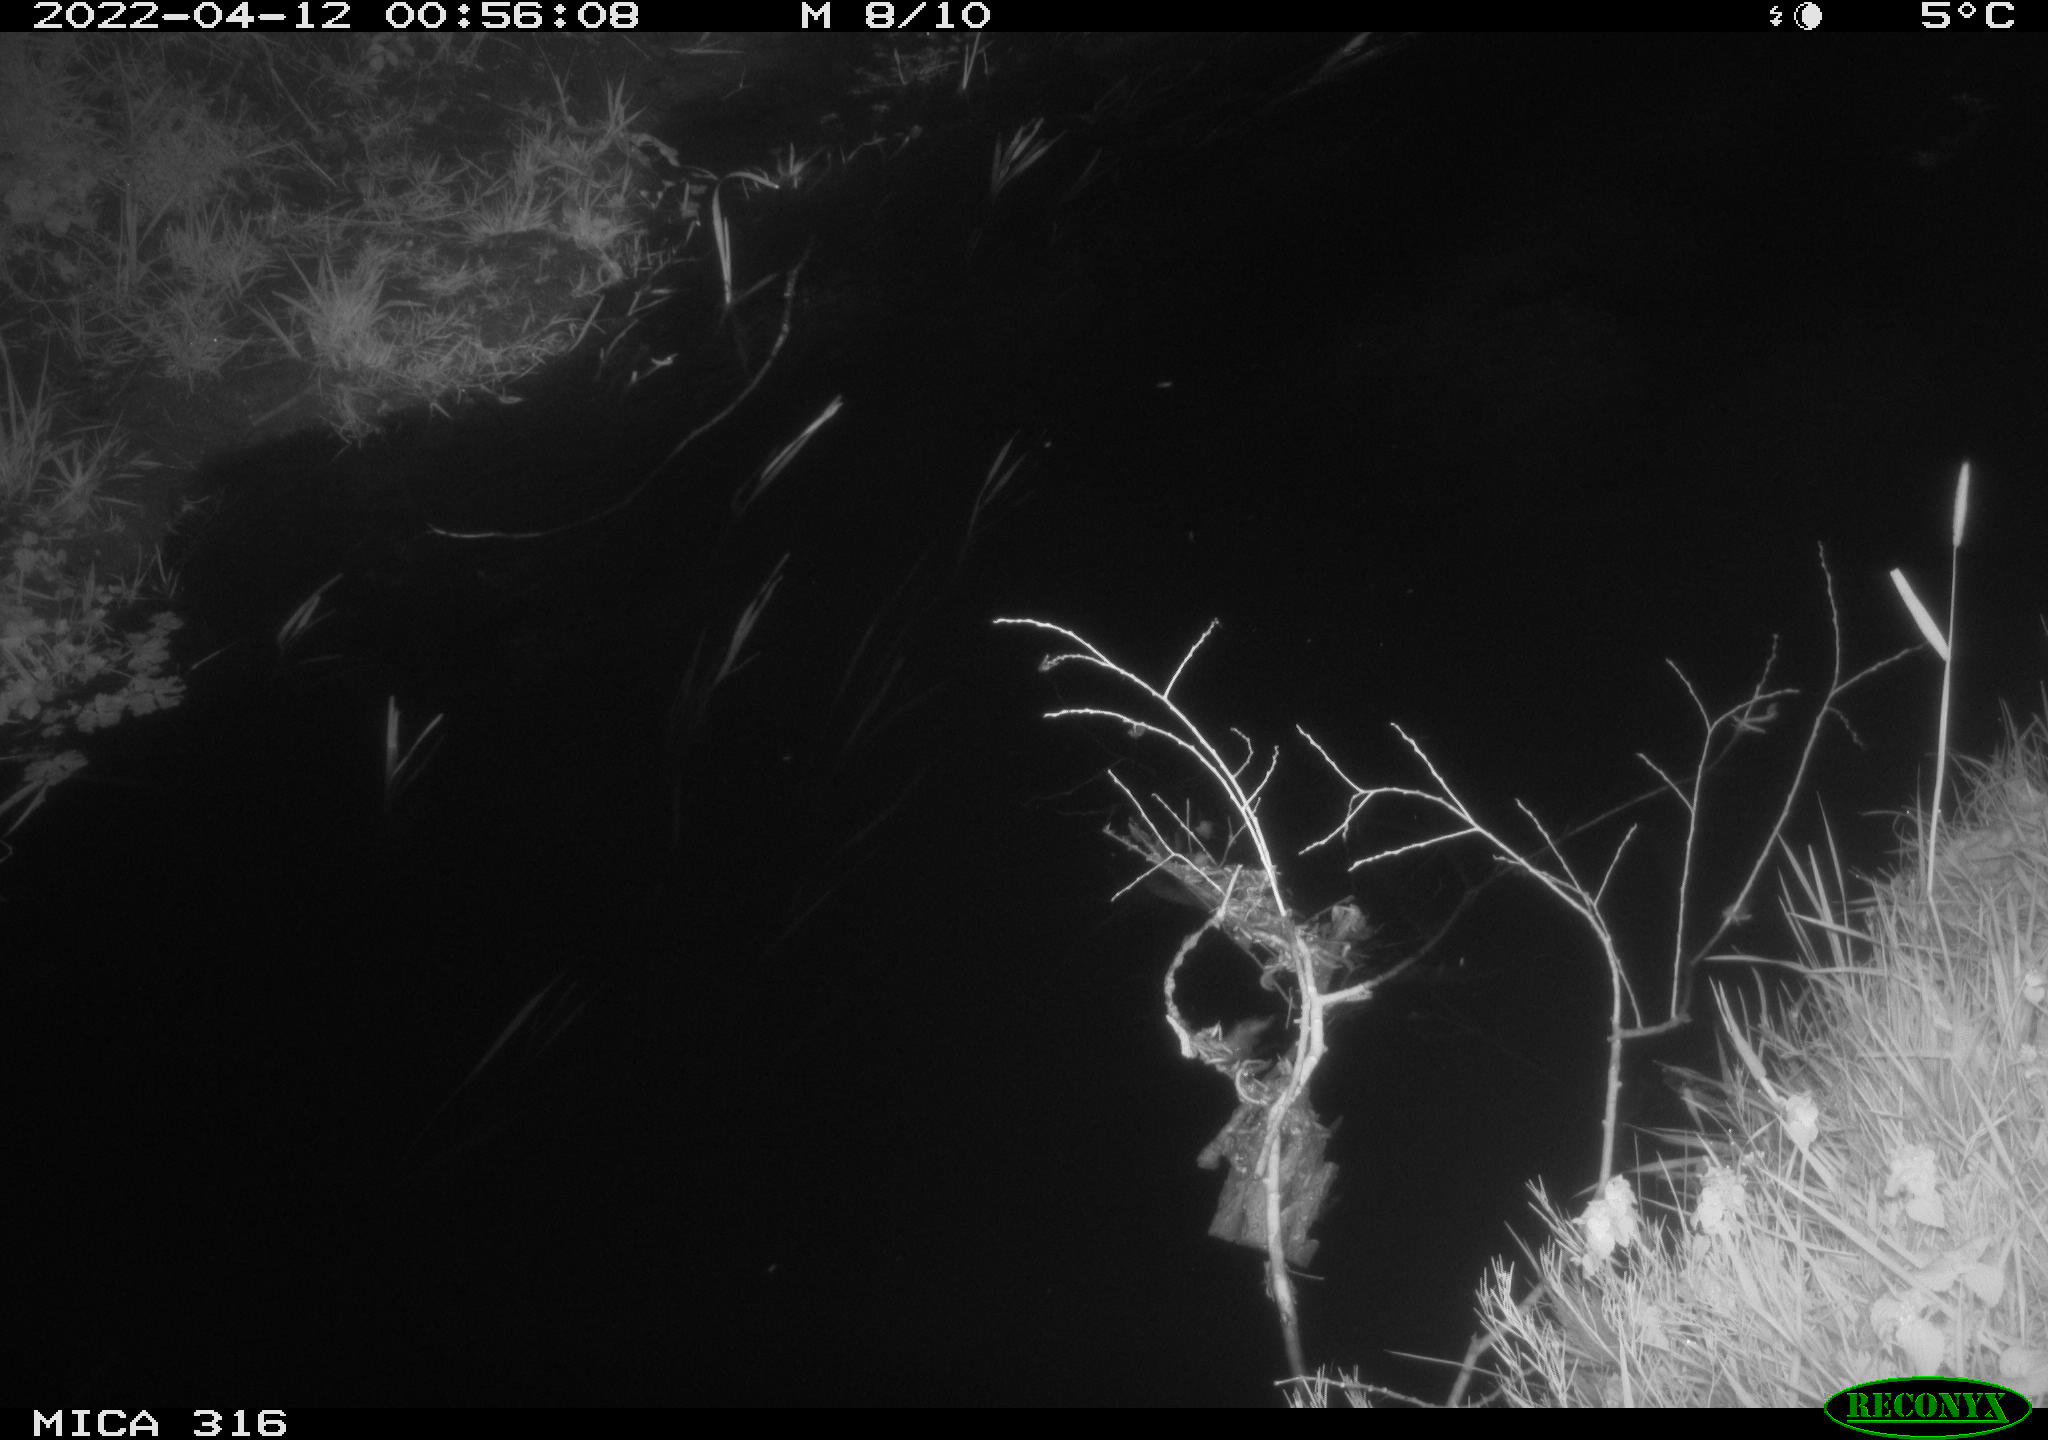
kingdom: Animalia
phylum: Chordata
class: Aves
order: Anseriformes
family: Anatidae
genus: Anas
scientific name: Anas platyrhynchos
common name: Mallard
